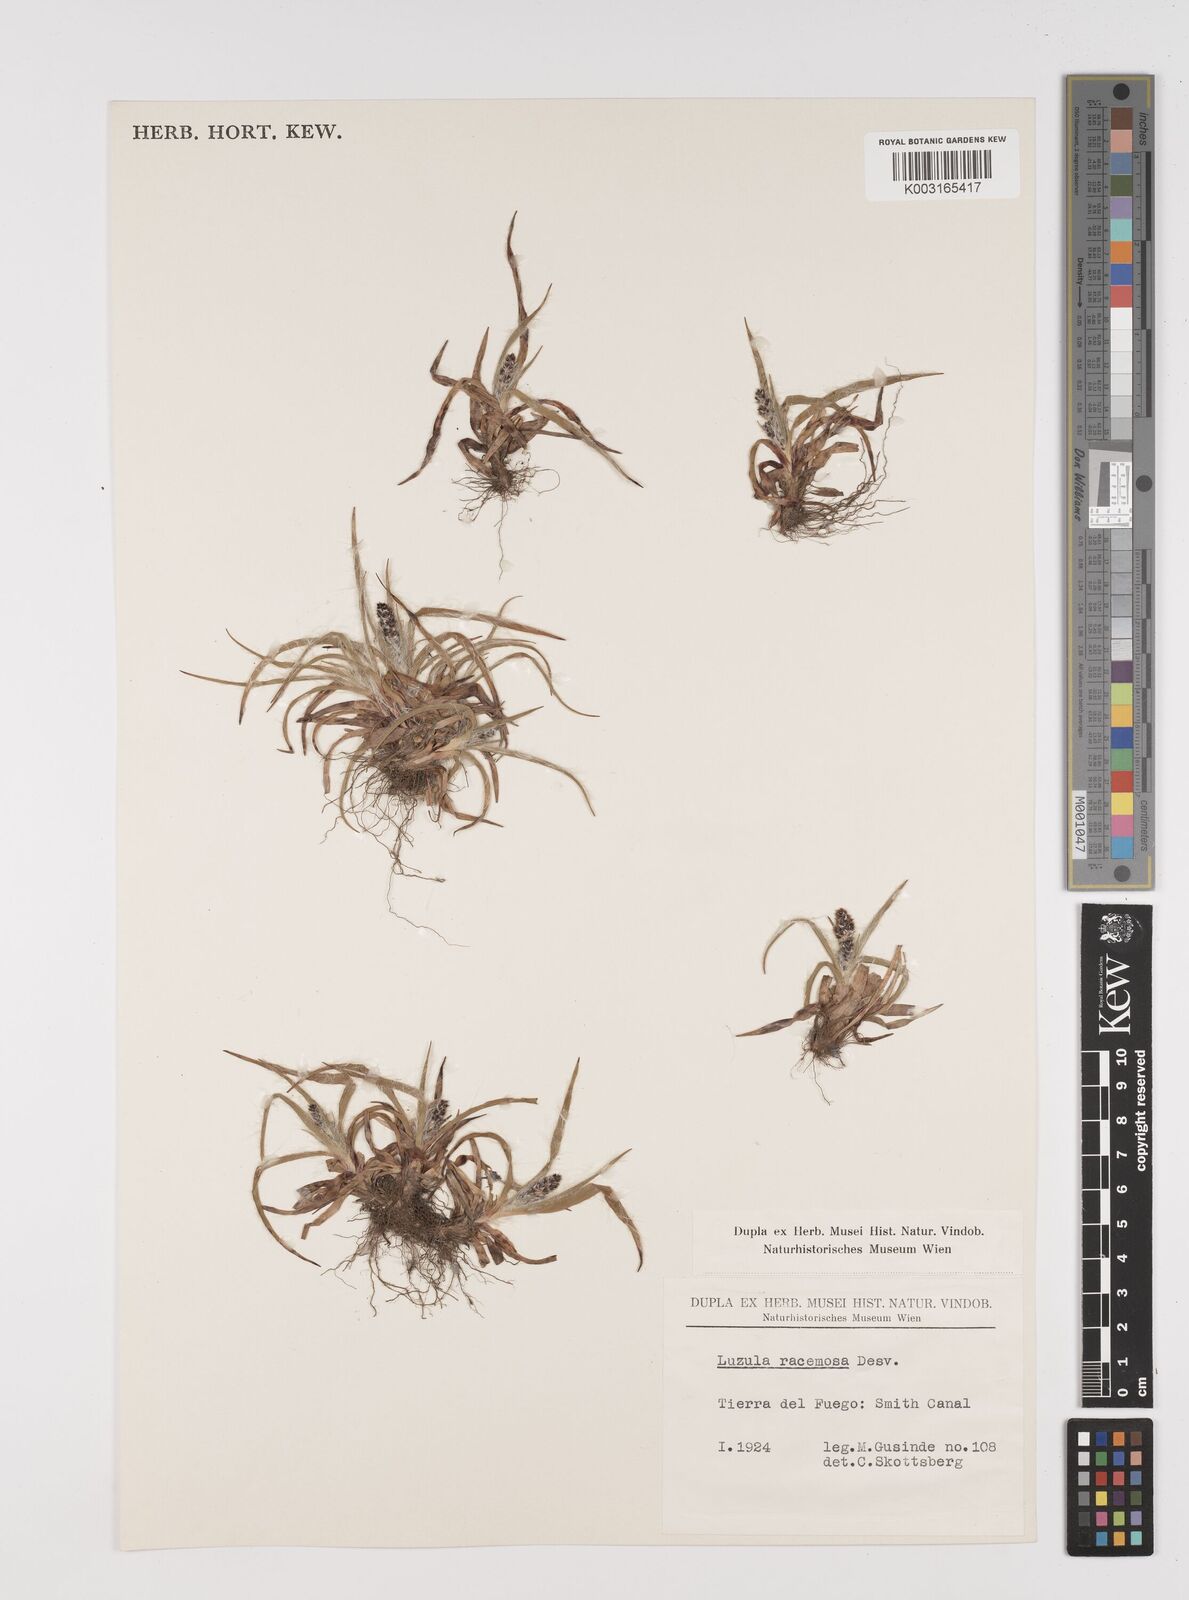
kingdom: Plantae
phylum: Tracheophyta
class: Liliopsida
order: Poales
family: Juncaceae
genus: Luzula
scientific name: Luzula racemosa
